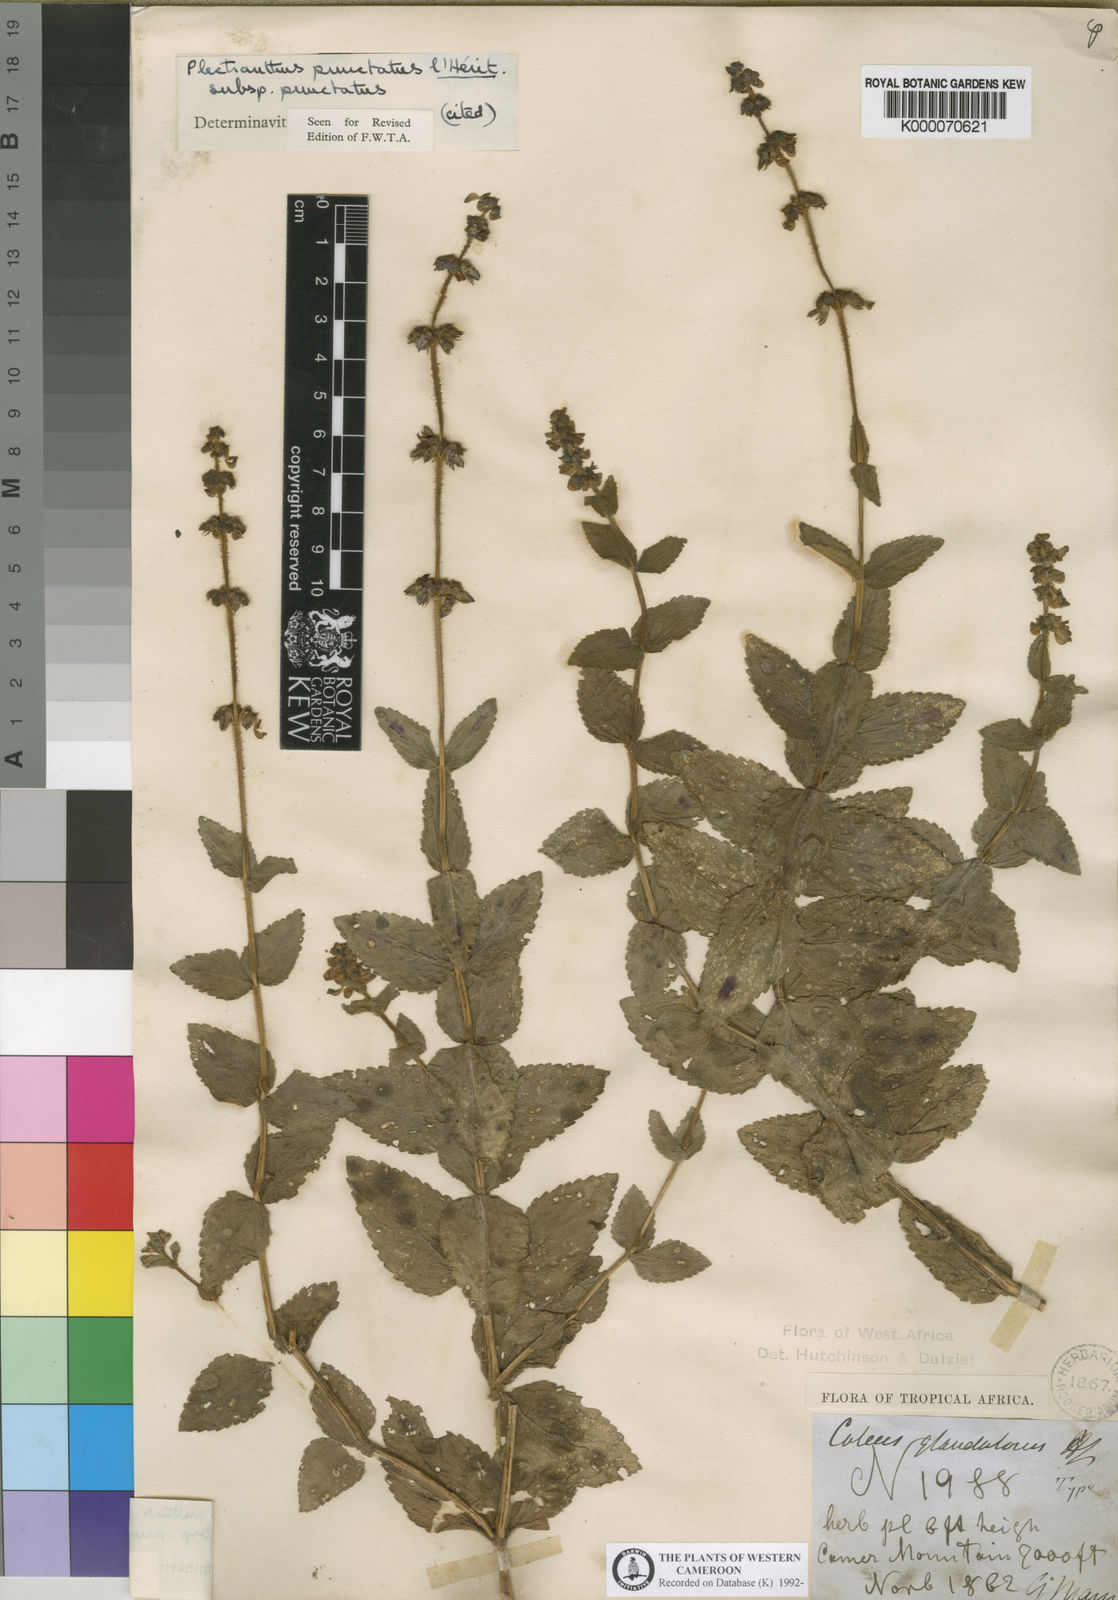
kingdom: Plantae
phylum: Tracheophyta
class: Magnoliopsida
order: Lamiales
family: Lamiaceae
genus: Plectranthus
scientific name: Plectranthus
